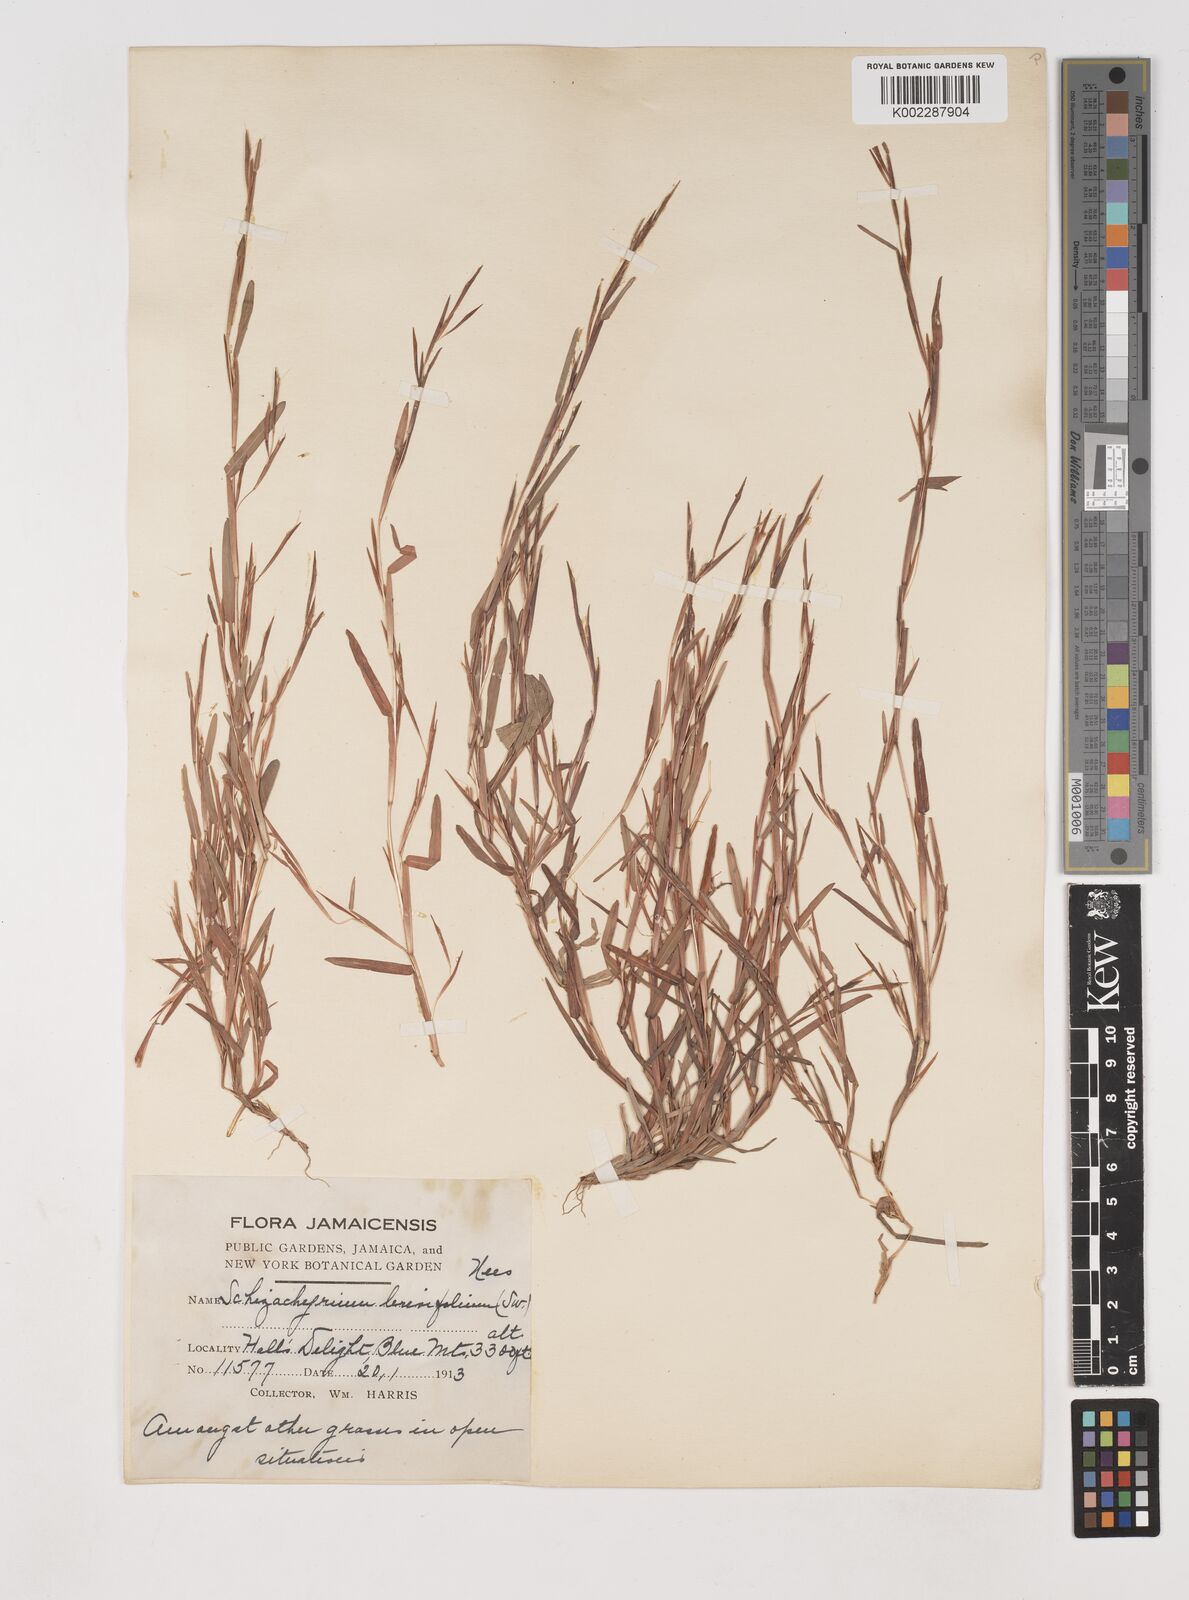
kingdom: Plantae
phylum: Tracheophyta
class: Liliopsida
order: Poales
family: Poaceae
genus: Schizachyrium
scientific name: Schizachyrium brevifolium
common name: Serillo dulce
